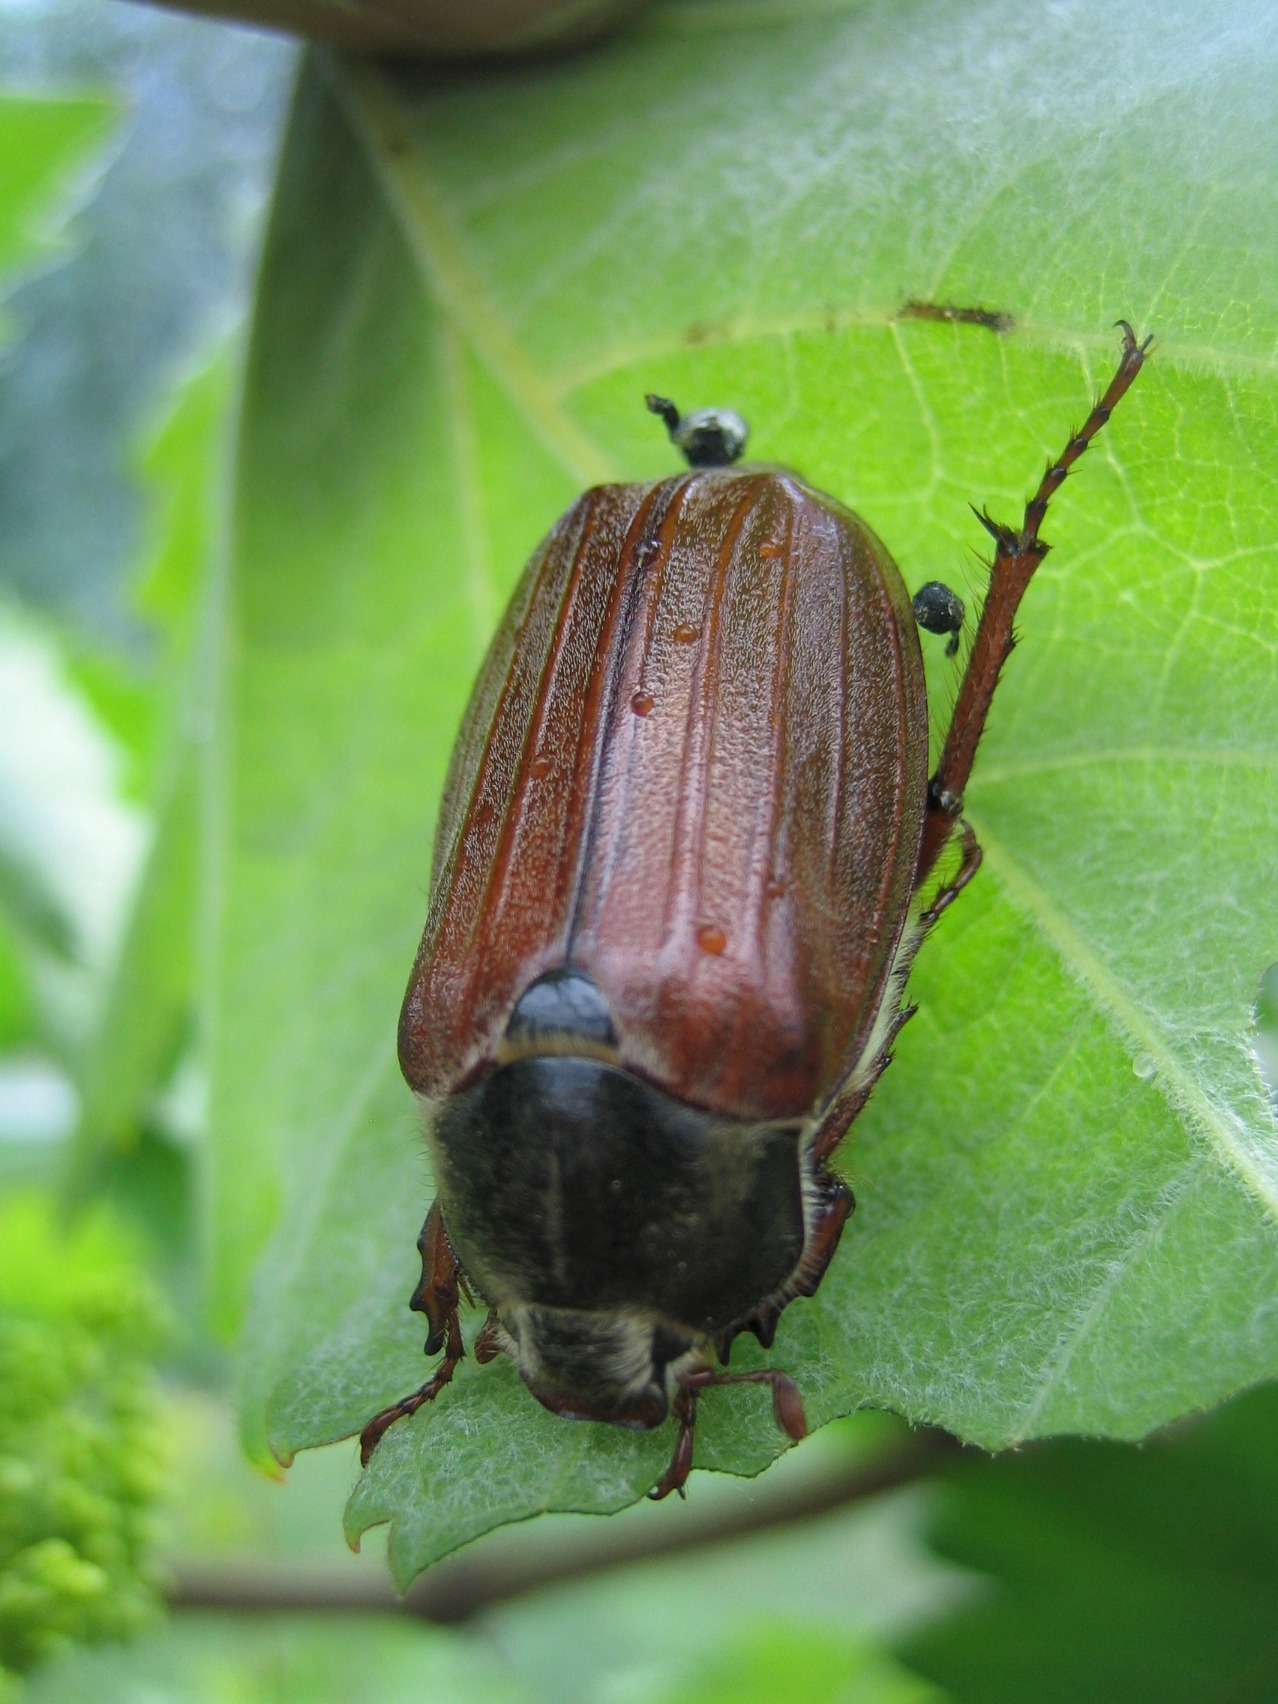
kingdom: Animalia
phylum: Arthropoda
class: Insecta
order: Coleoptera
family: Scarabaeidae
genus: Melolontha
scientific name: Melolontha melolontha
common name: Almindelig oldenborre
